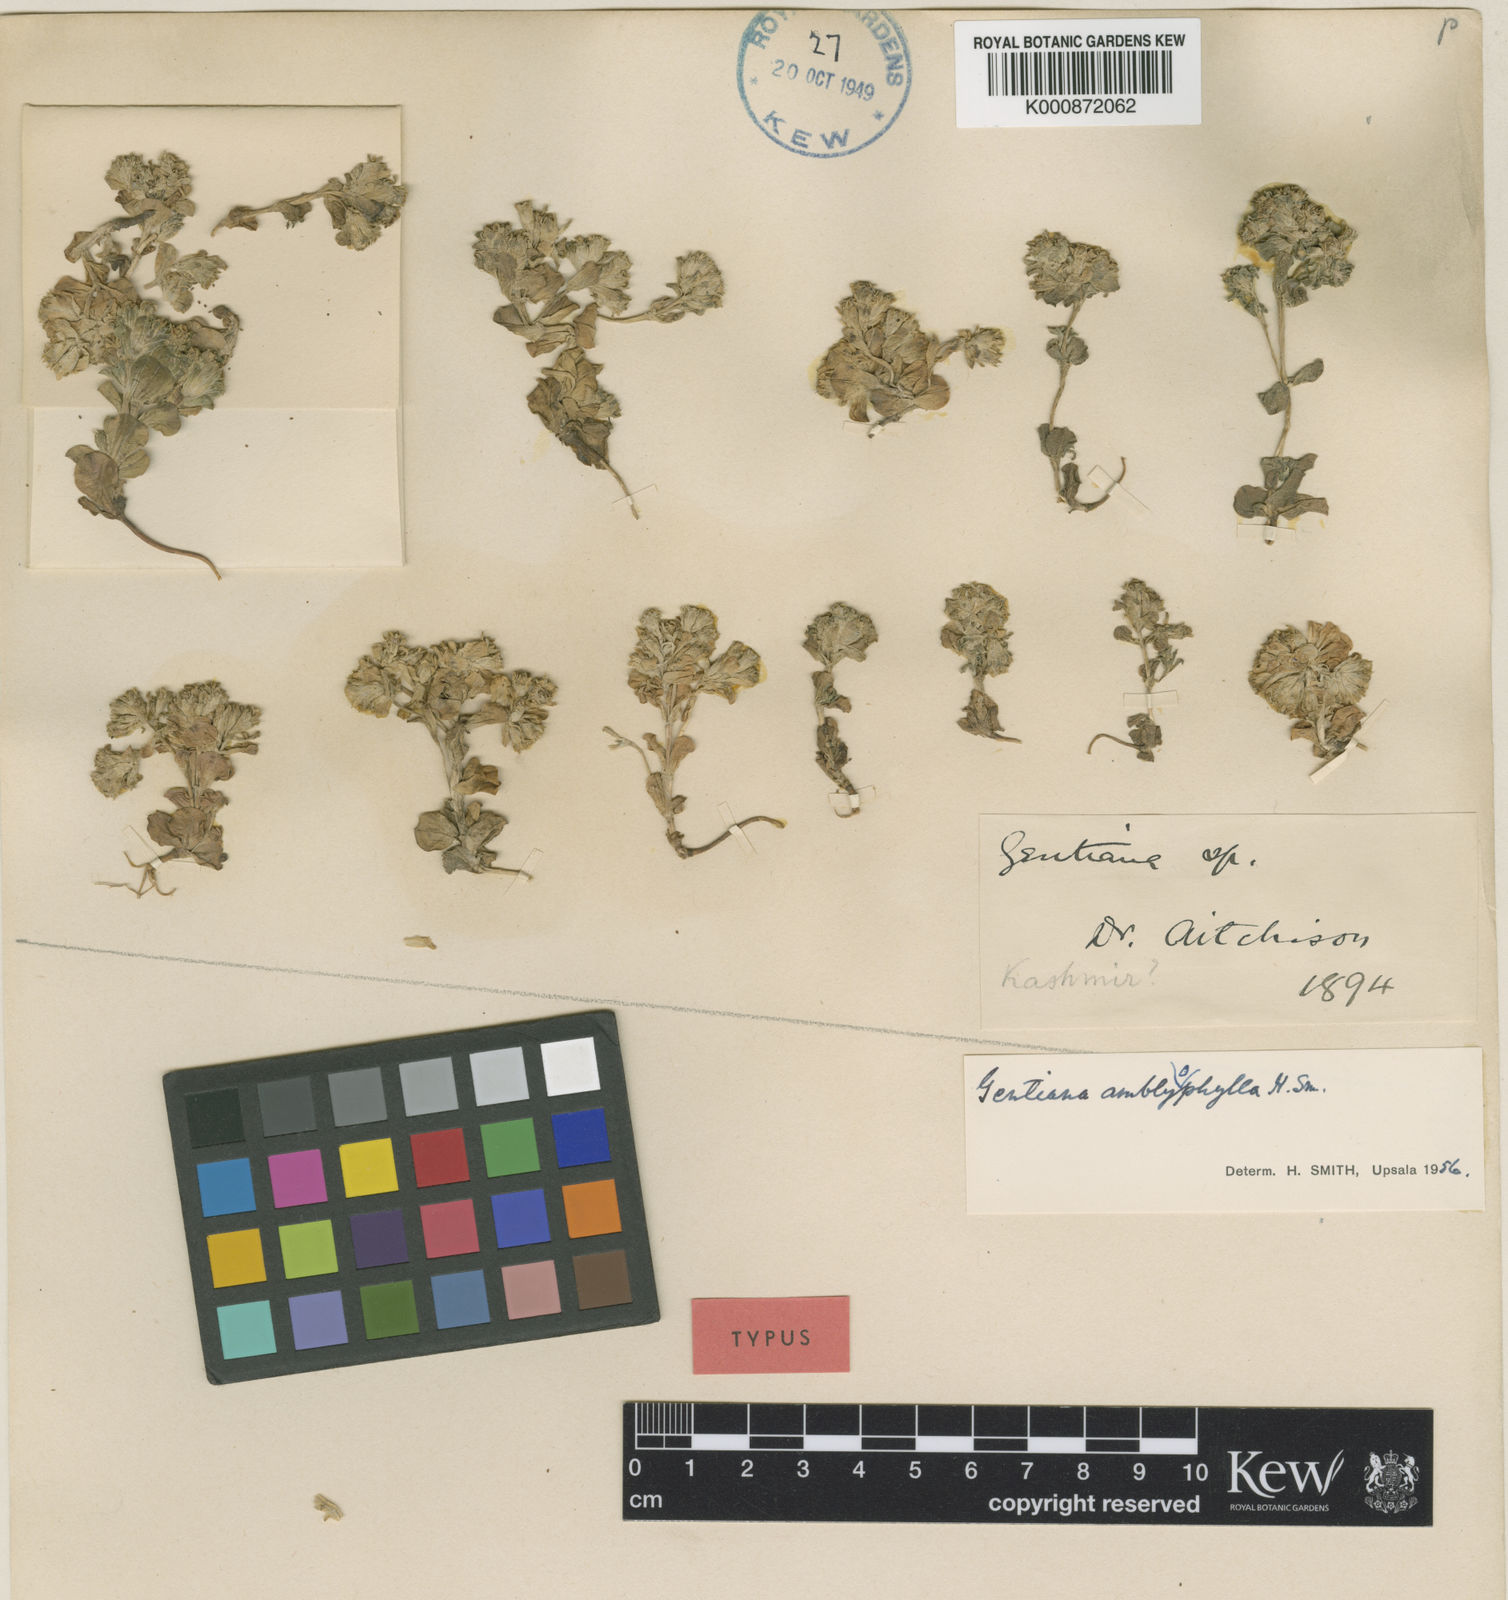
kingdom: Plantae
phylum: Tracheophyta
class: Magnoliopsida
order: Gentianales
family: Gentianaceae
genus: Gentiana
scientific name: Gentiana capitata
